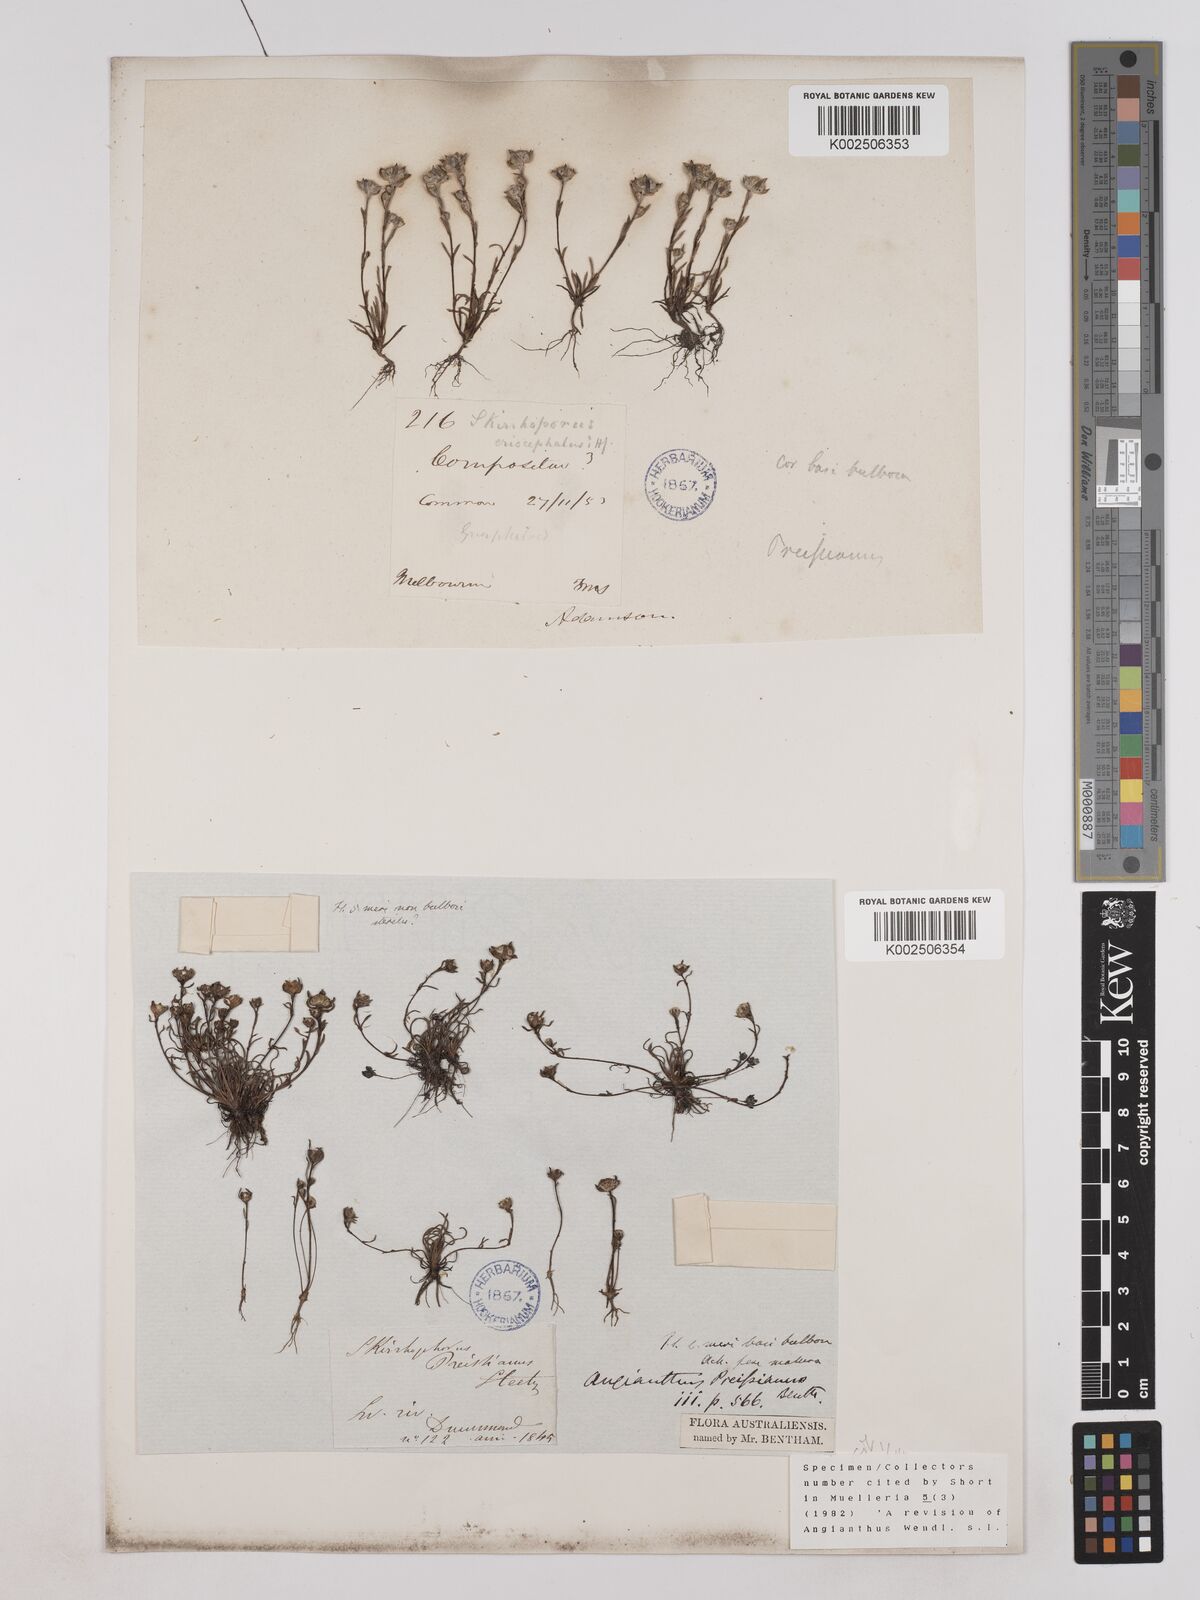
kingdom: Plantae
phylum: Tracheophyta
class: Magnoliopsida
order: Asterales
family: Asteraceae
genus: Angianthus
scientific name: Angianthus preissianus
